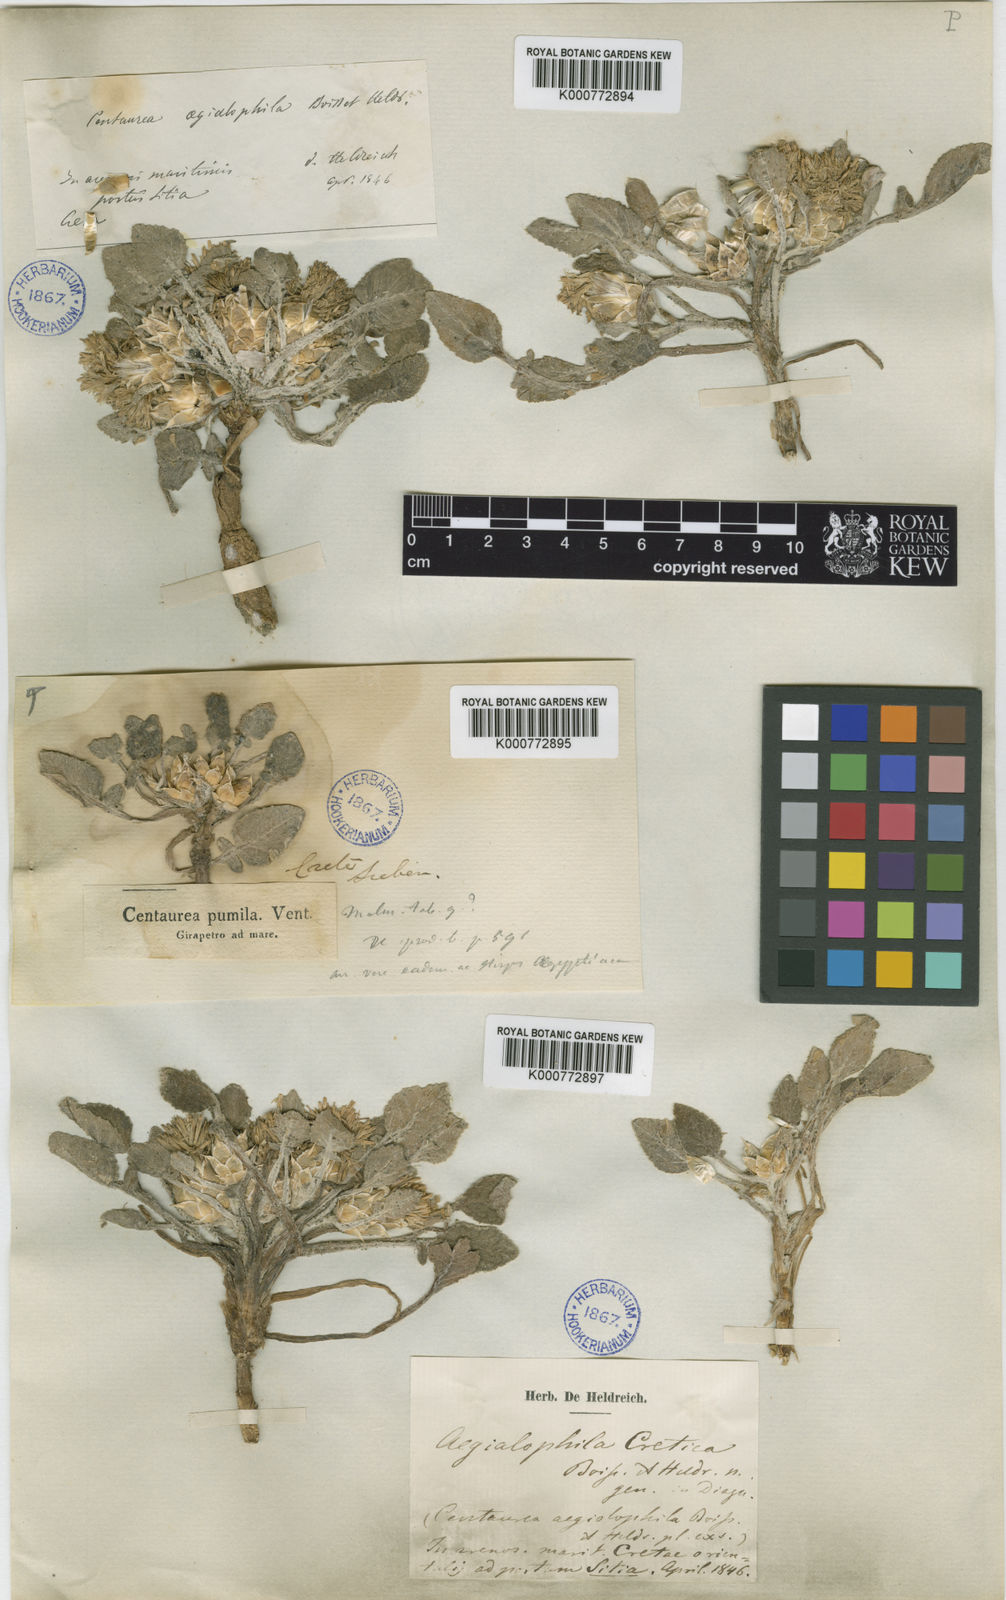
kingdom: Plantae
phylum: Tracheophyta
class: Magnoliopsida
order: Asterales
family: Asteraceae
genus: Centaurea
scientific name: Centaurea
